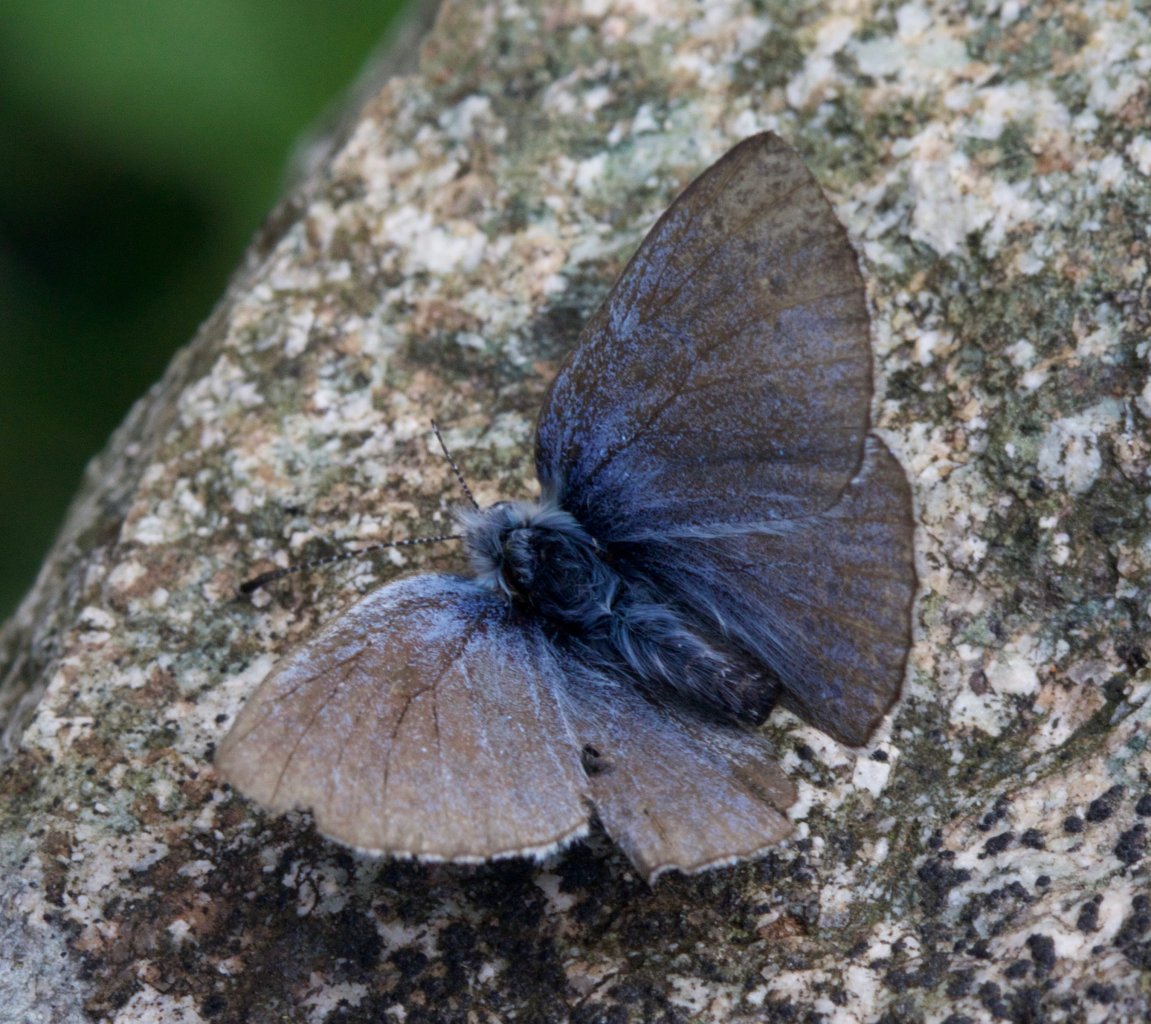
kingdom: Animalia
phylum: Arthropoda
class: Insecta
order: Lepidoptera
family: Lycaenidae
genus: Glaucopsyche
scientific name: Glaucopsyche lygdamus
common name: Silvery Blue
